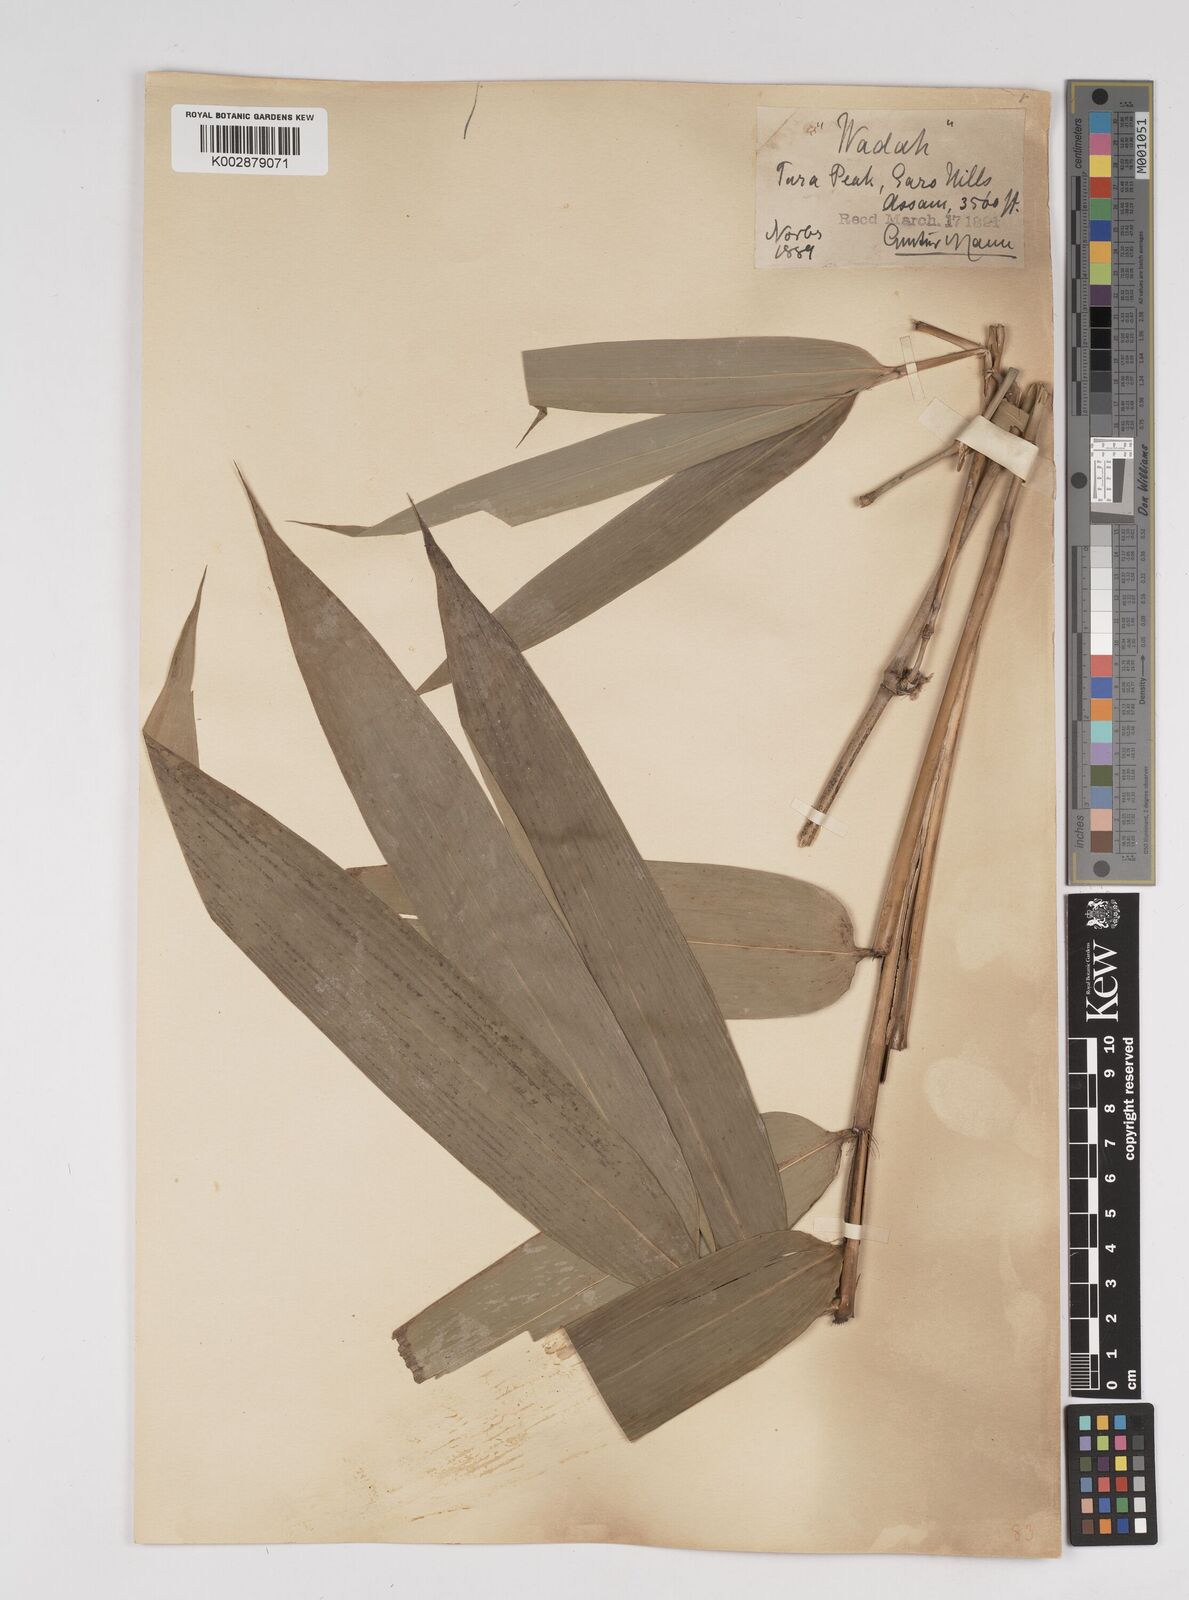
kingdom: Plantae
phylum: Tracheophyta
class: Liliopsida
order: Poales
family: Poaceae
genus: Dendrocalamus
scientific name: Dendrocalamus sikkimensis
